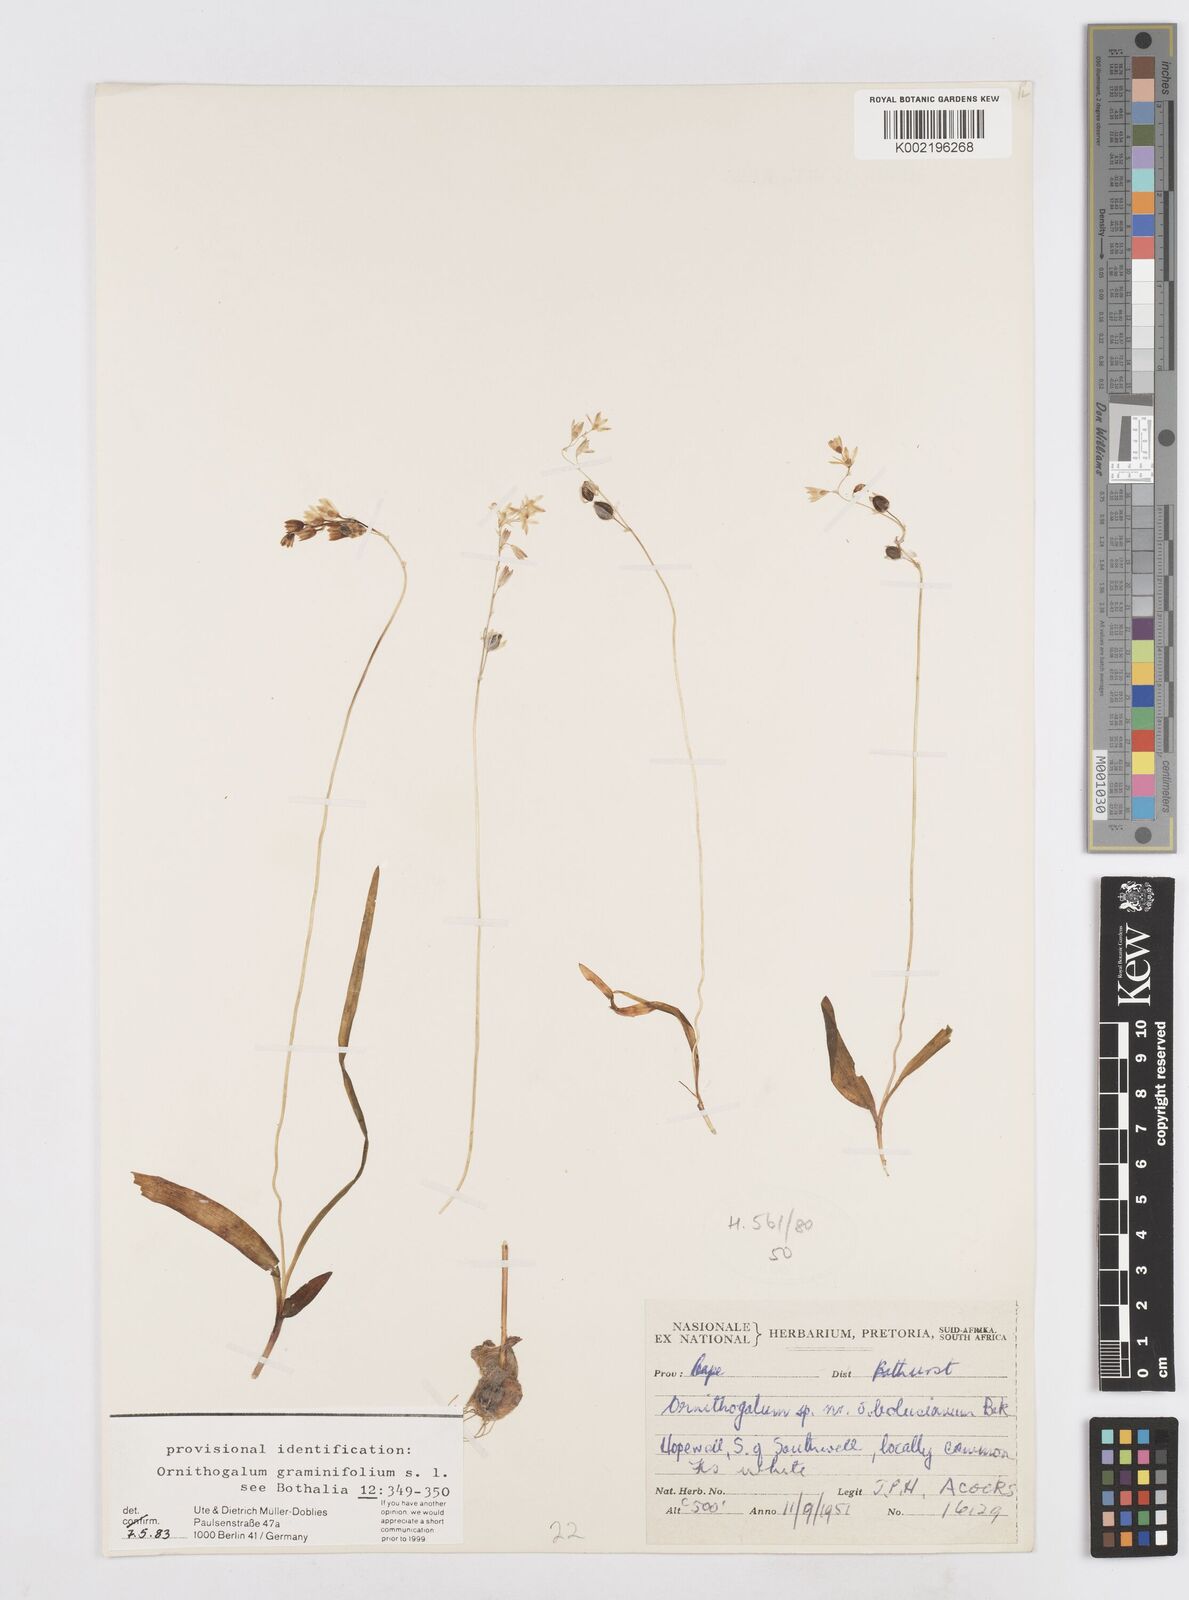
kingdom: Plantae
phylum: Tracheophyta
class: Liliopsida
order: Asparagales
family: Asparagaceae
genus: Ornithogalum
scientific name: Ornithogalum graminifolium
